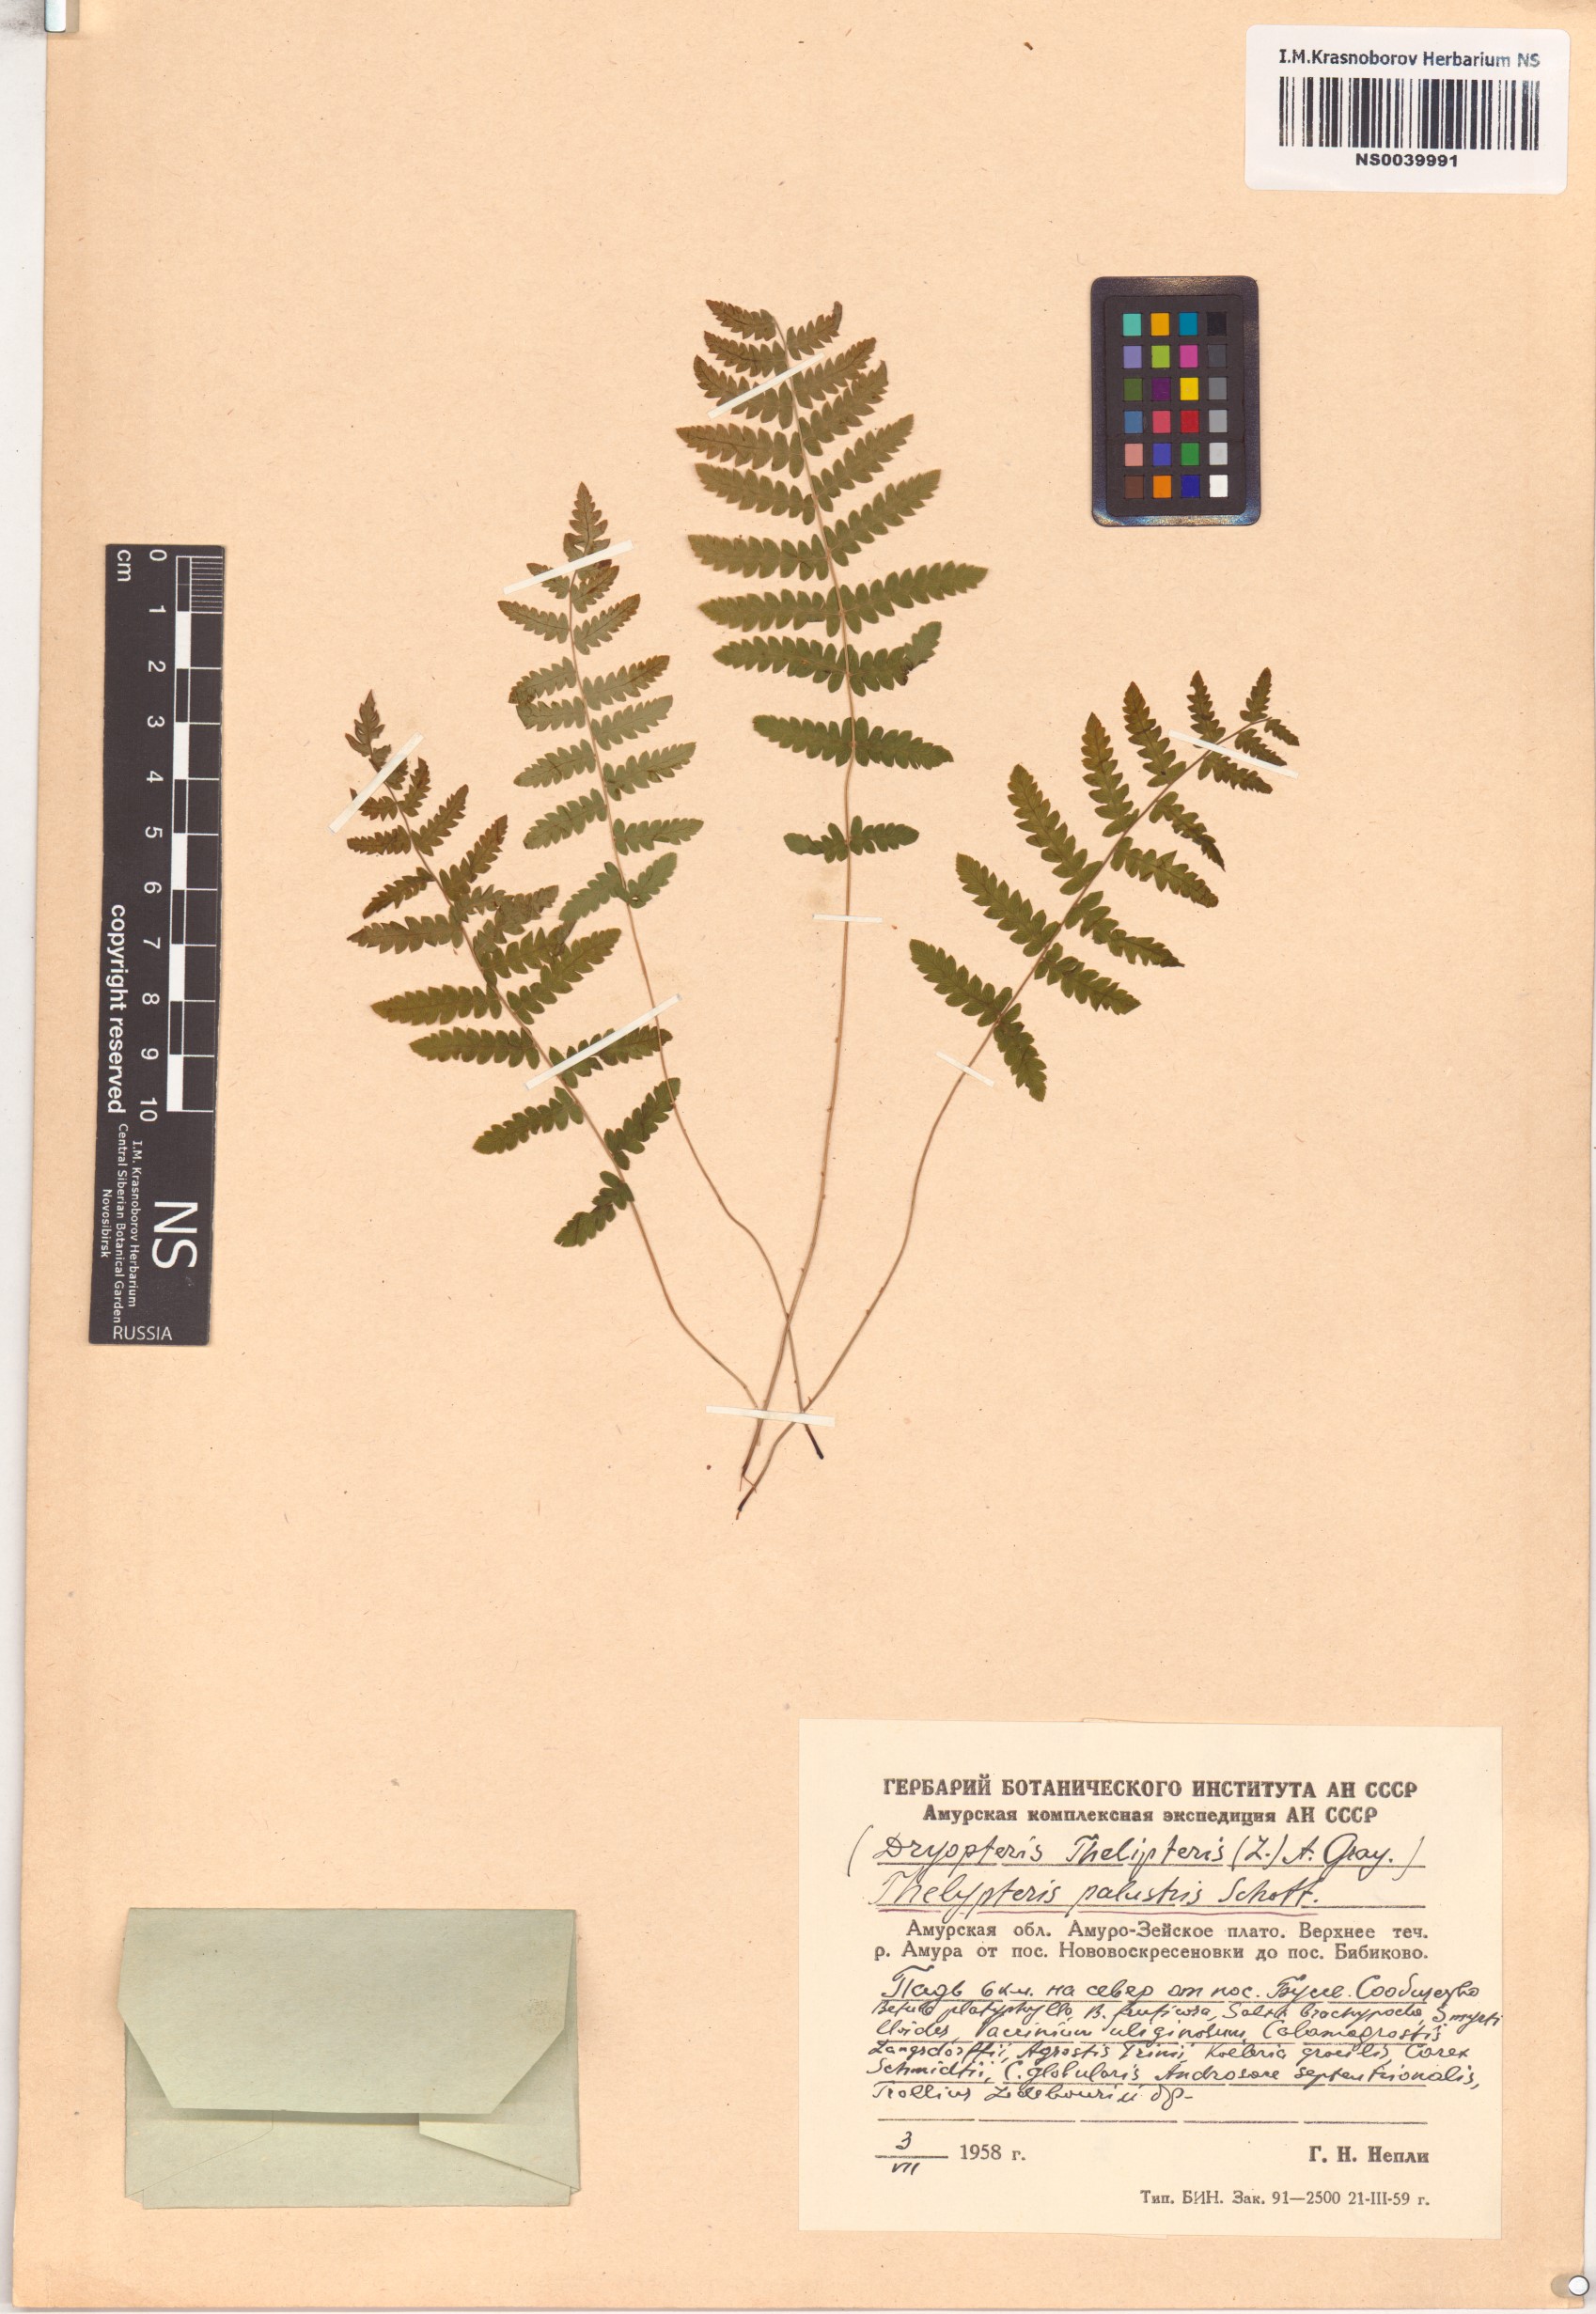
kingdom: Plantae
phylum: Tracheophyta
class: Polypodiopsida
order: Polypodiales
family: Thelypteridaceae
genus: Thelypteris
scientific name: Thelypteris palustris
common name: Marsh fern
